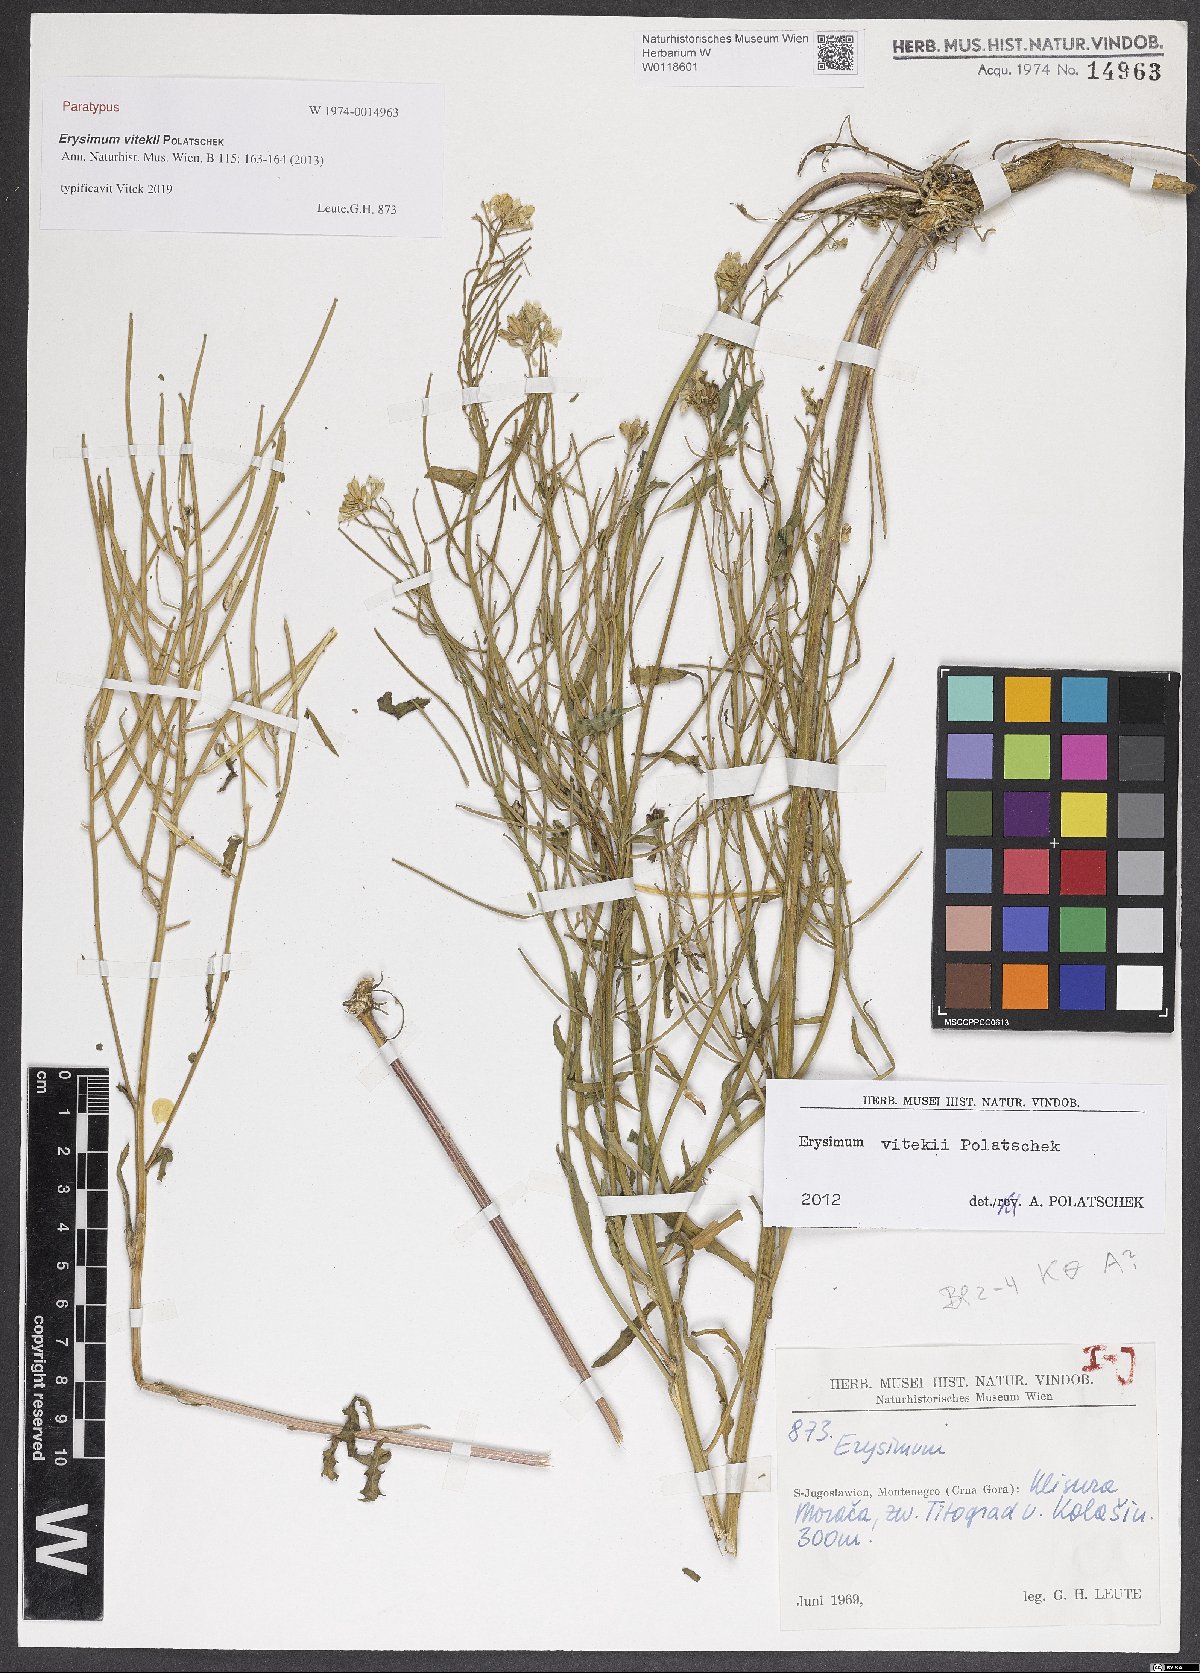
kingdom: Plantae
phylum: Tracheophyta
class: Magnoliopsida
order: Brassicales
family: Brassicaceae
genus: Erysimum
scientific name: Erysimum vitekii
